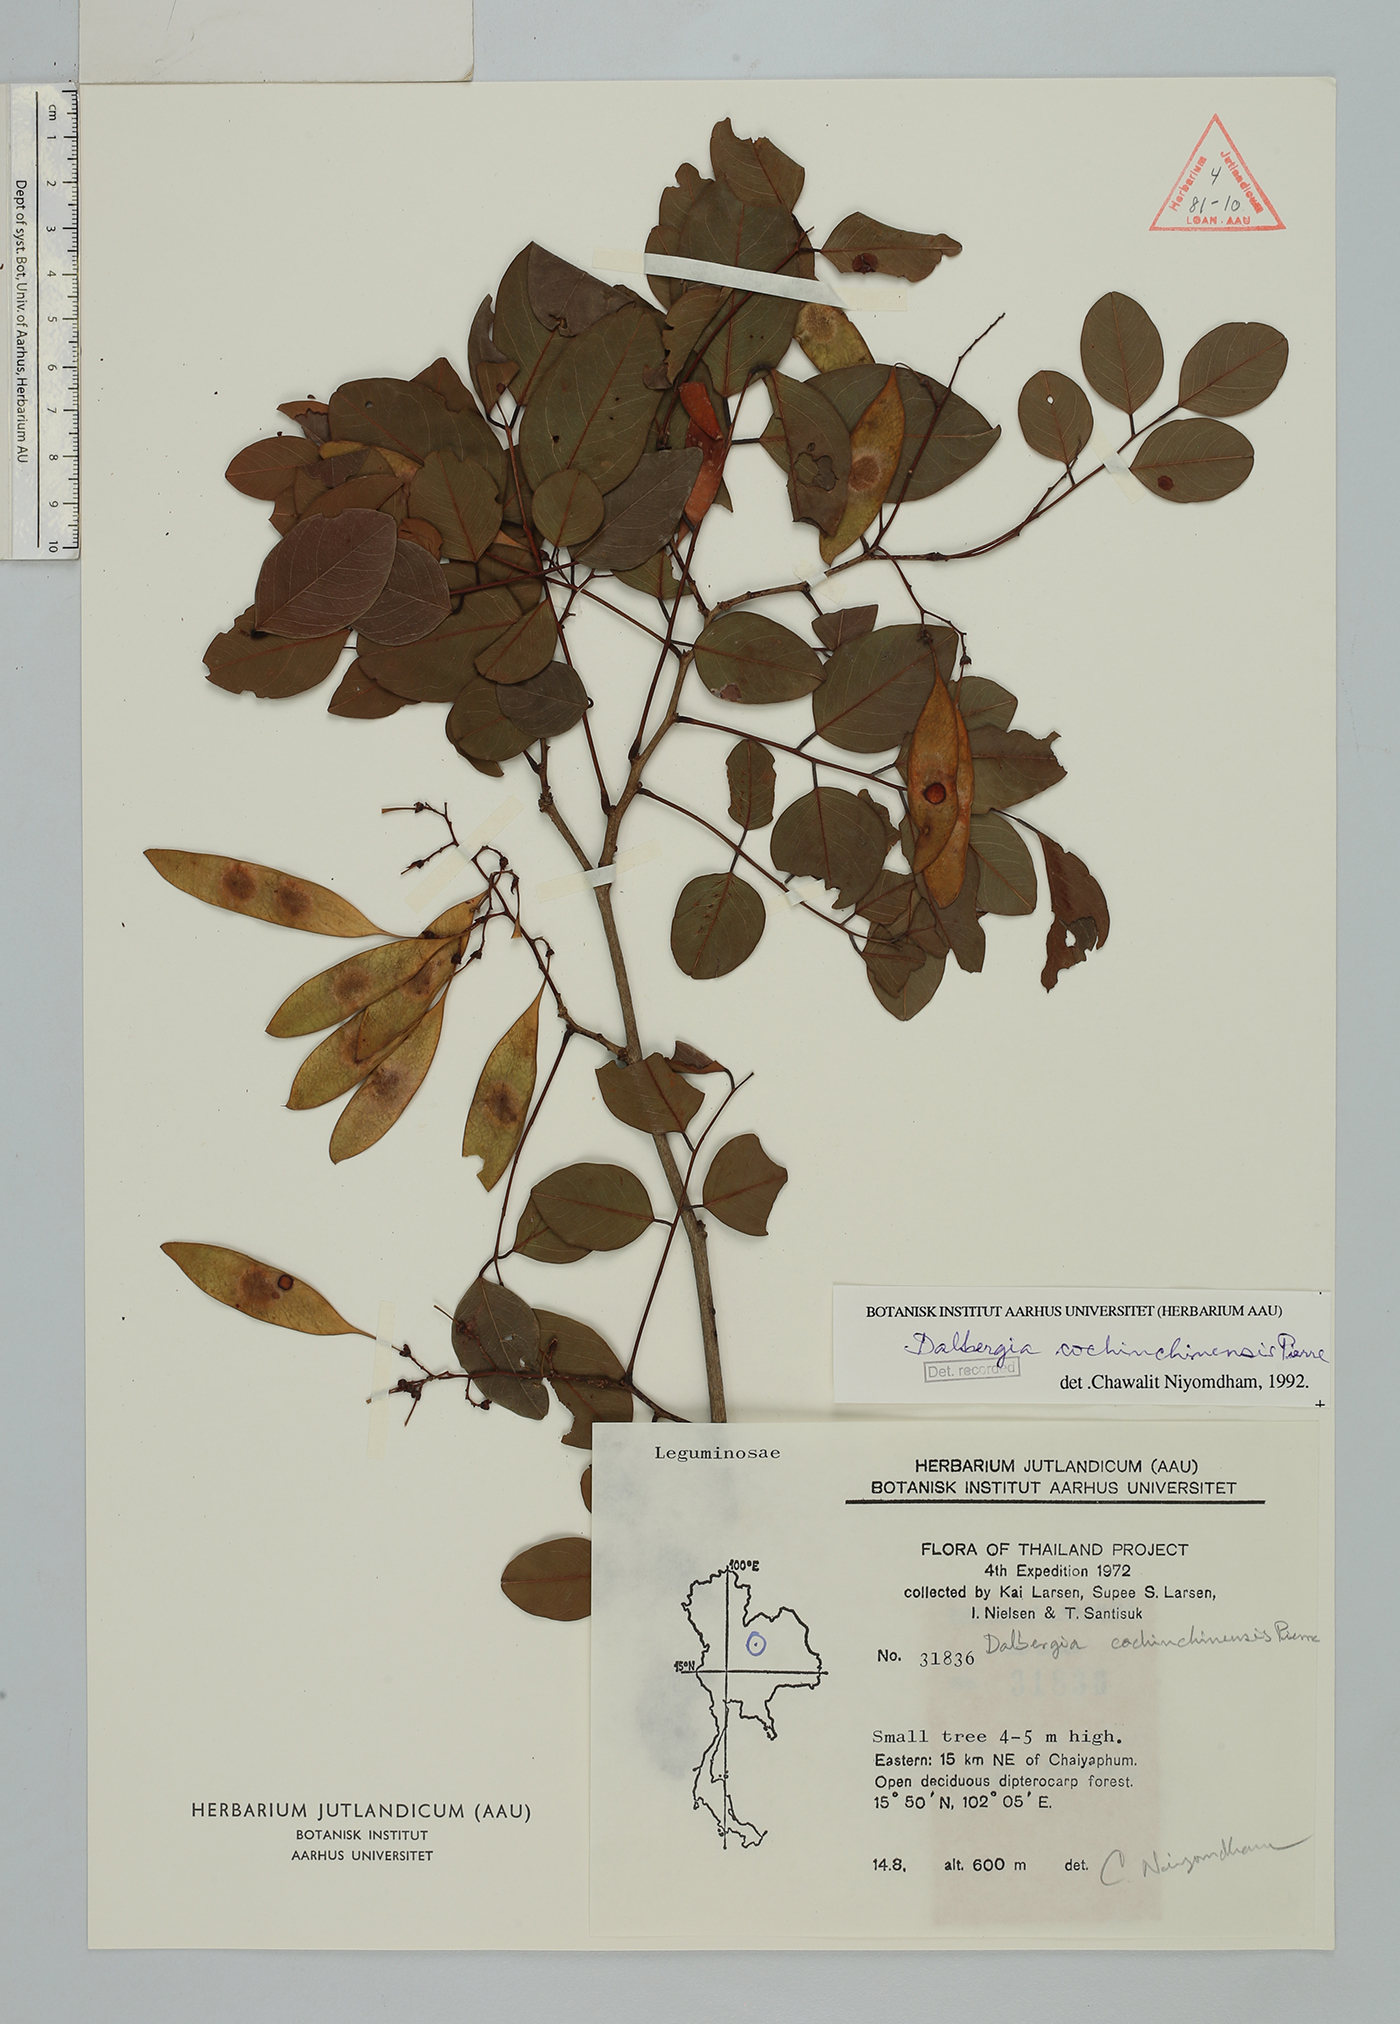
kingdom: Plantae
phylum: Tracheophyta
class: Magnoliopsida
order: Fabales
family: Fabaceae
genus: Dalbergia
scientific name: Dalbergia cochinchinensis
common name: Siamese rosewood
